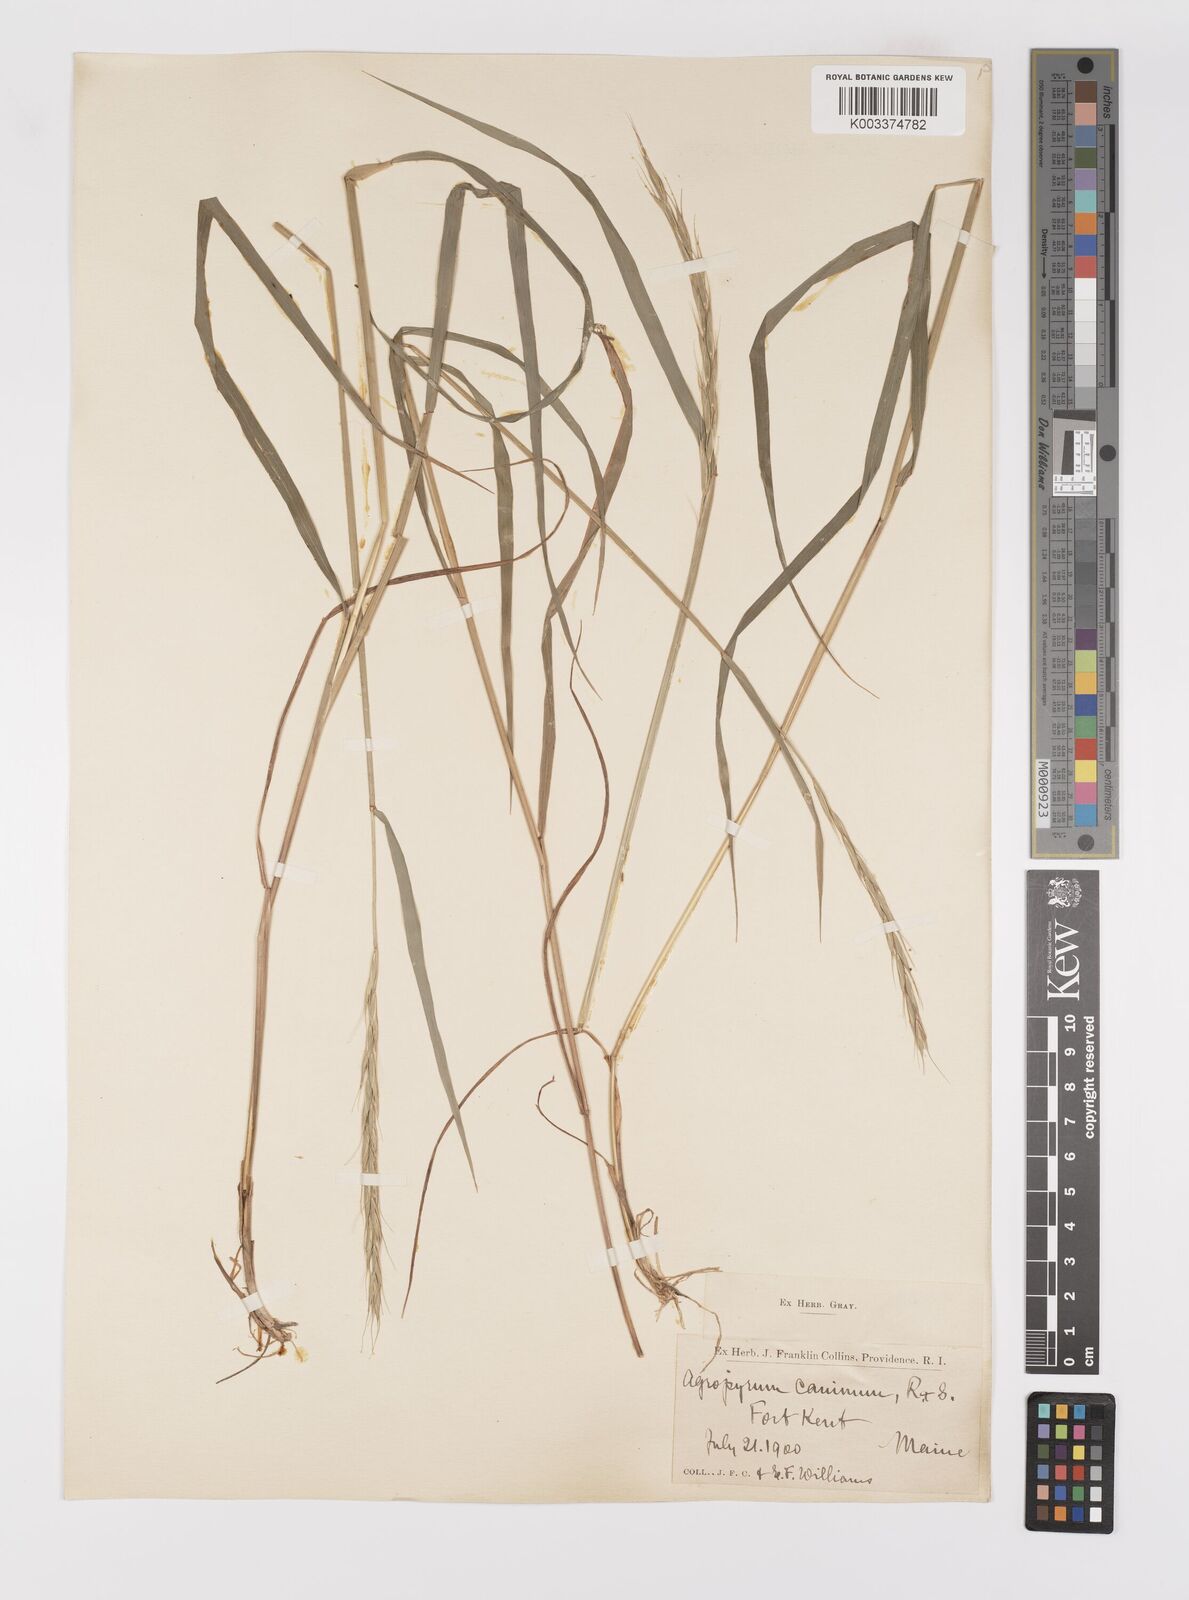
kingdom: Plantae
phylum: Tracheophyta
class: Liliopsida
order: Poales
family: Poaceae
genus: Elymus
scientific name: Elymus violaceus
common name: Arctic wheatgrass
